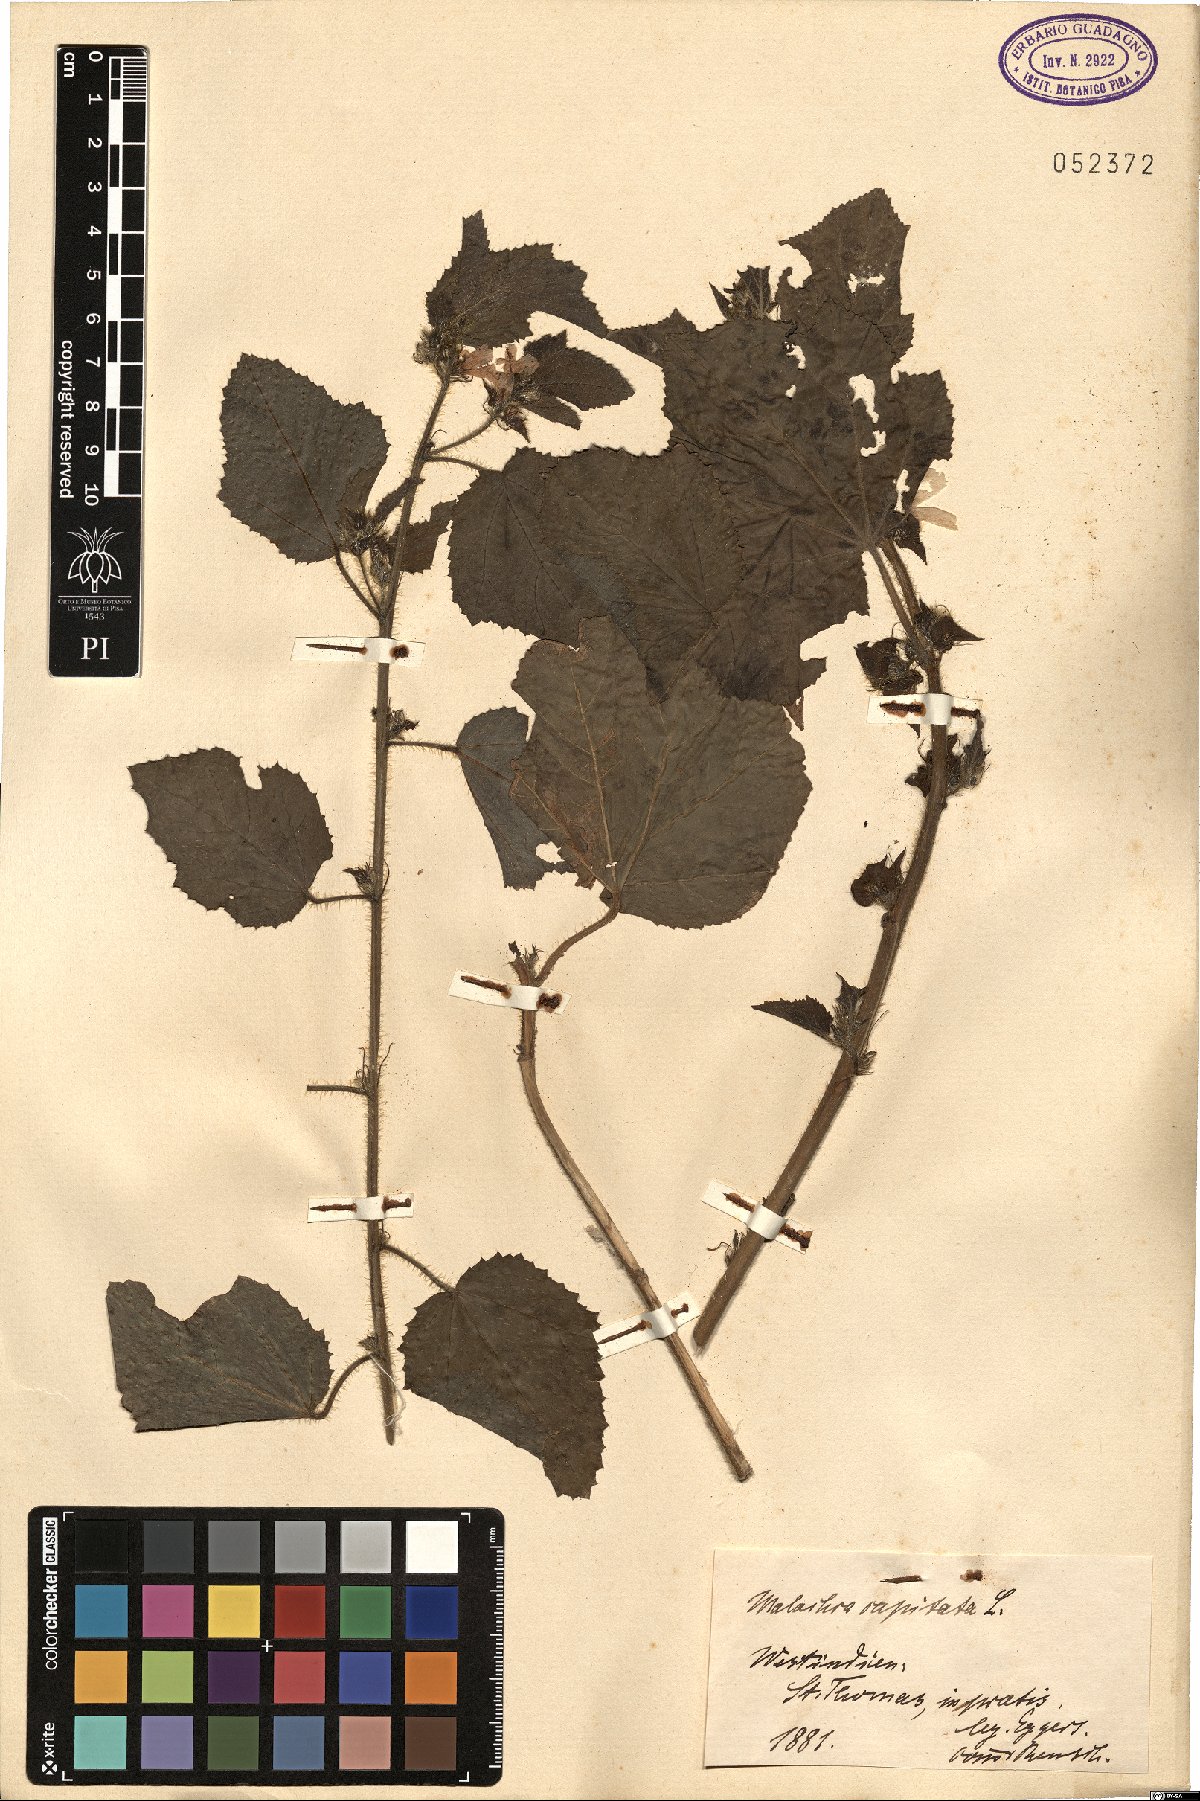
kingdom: Plantae
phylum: Tracheophyta
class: Magnoliopsida
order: Malvales
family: Malvaceae
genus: Malachra
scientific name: Malachra capitata
